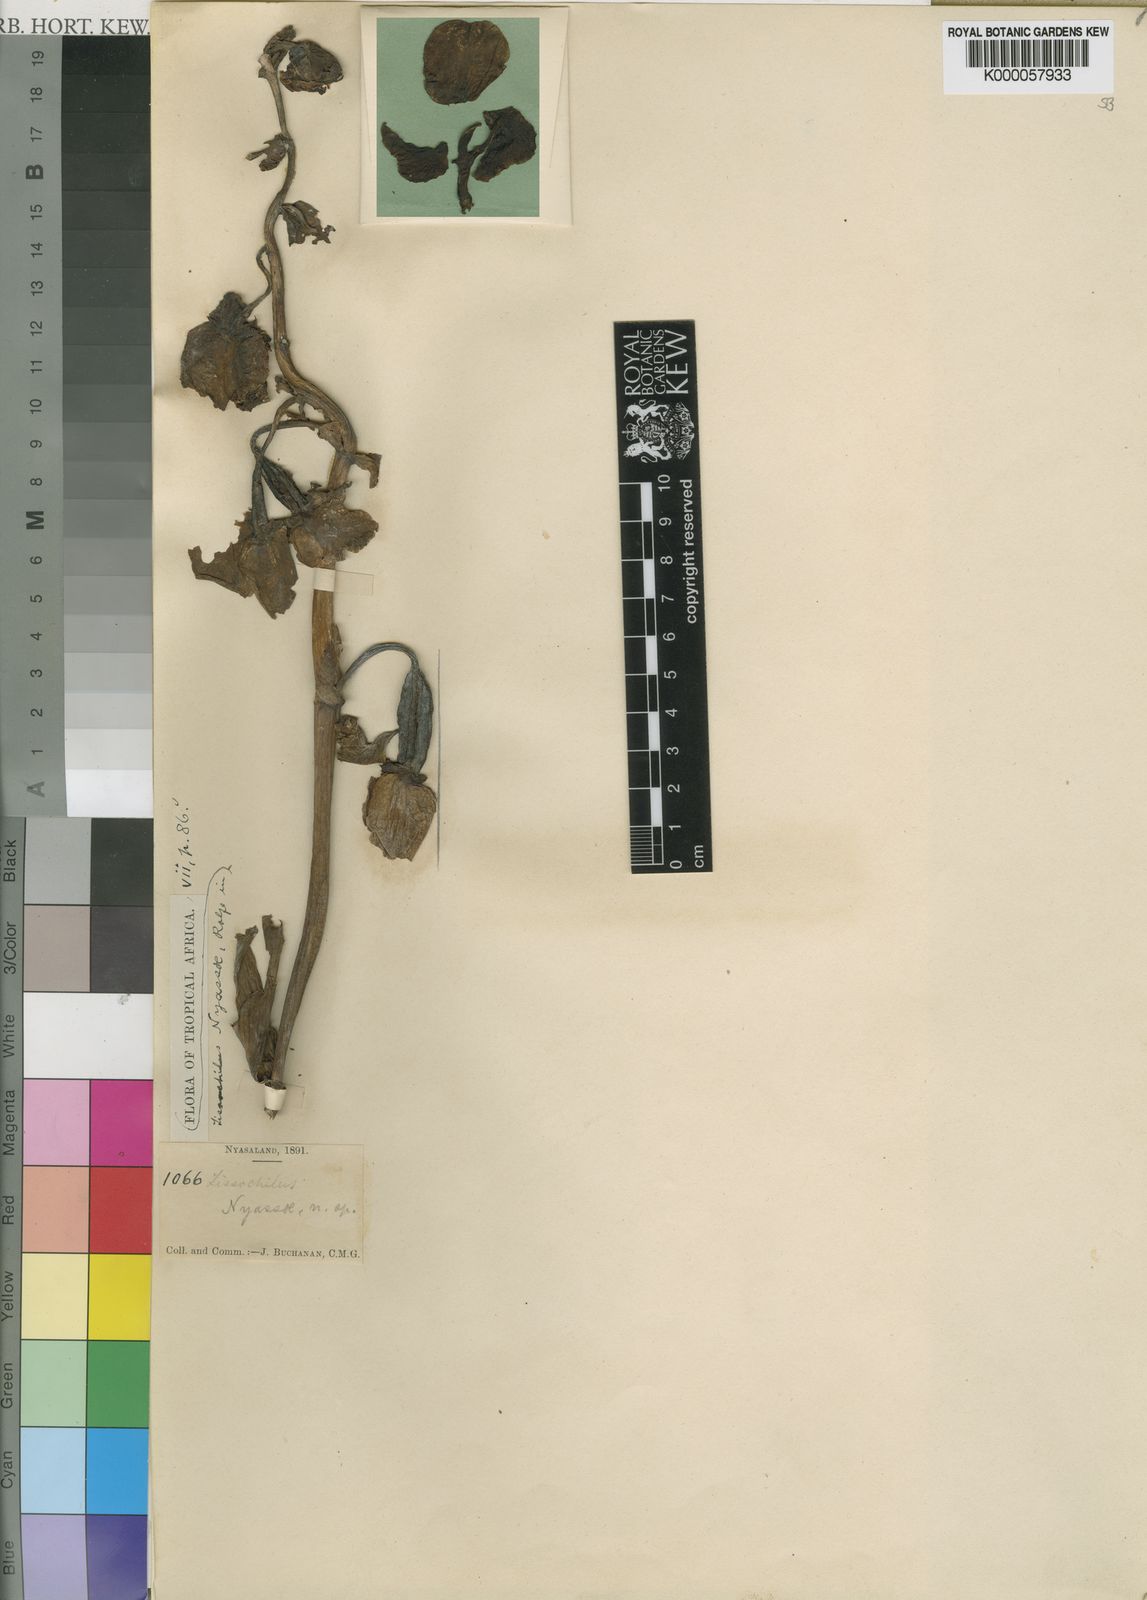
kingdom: Plantae
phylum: Tracheophyta
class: Liliopsida
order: Asparagales
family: Orchidaceae
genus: Eulophia
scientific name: Eulophia latilabris
